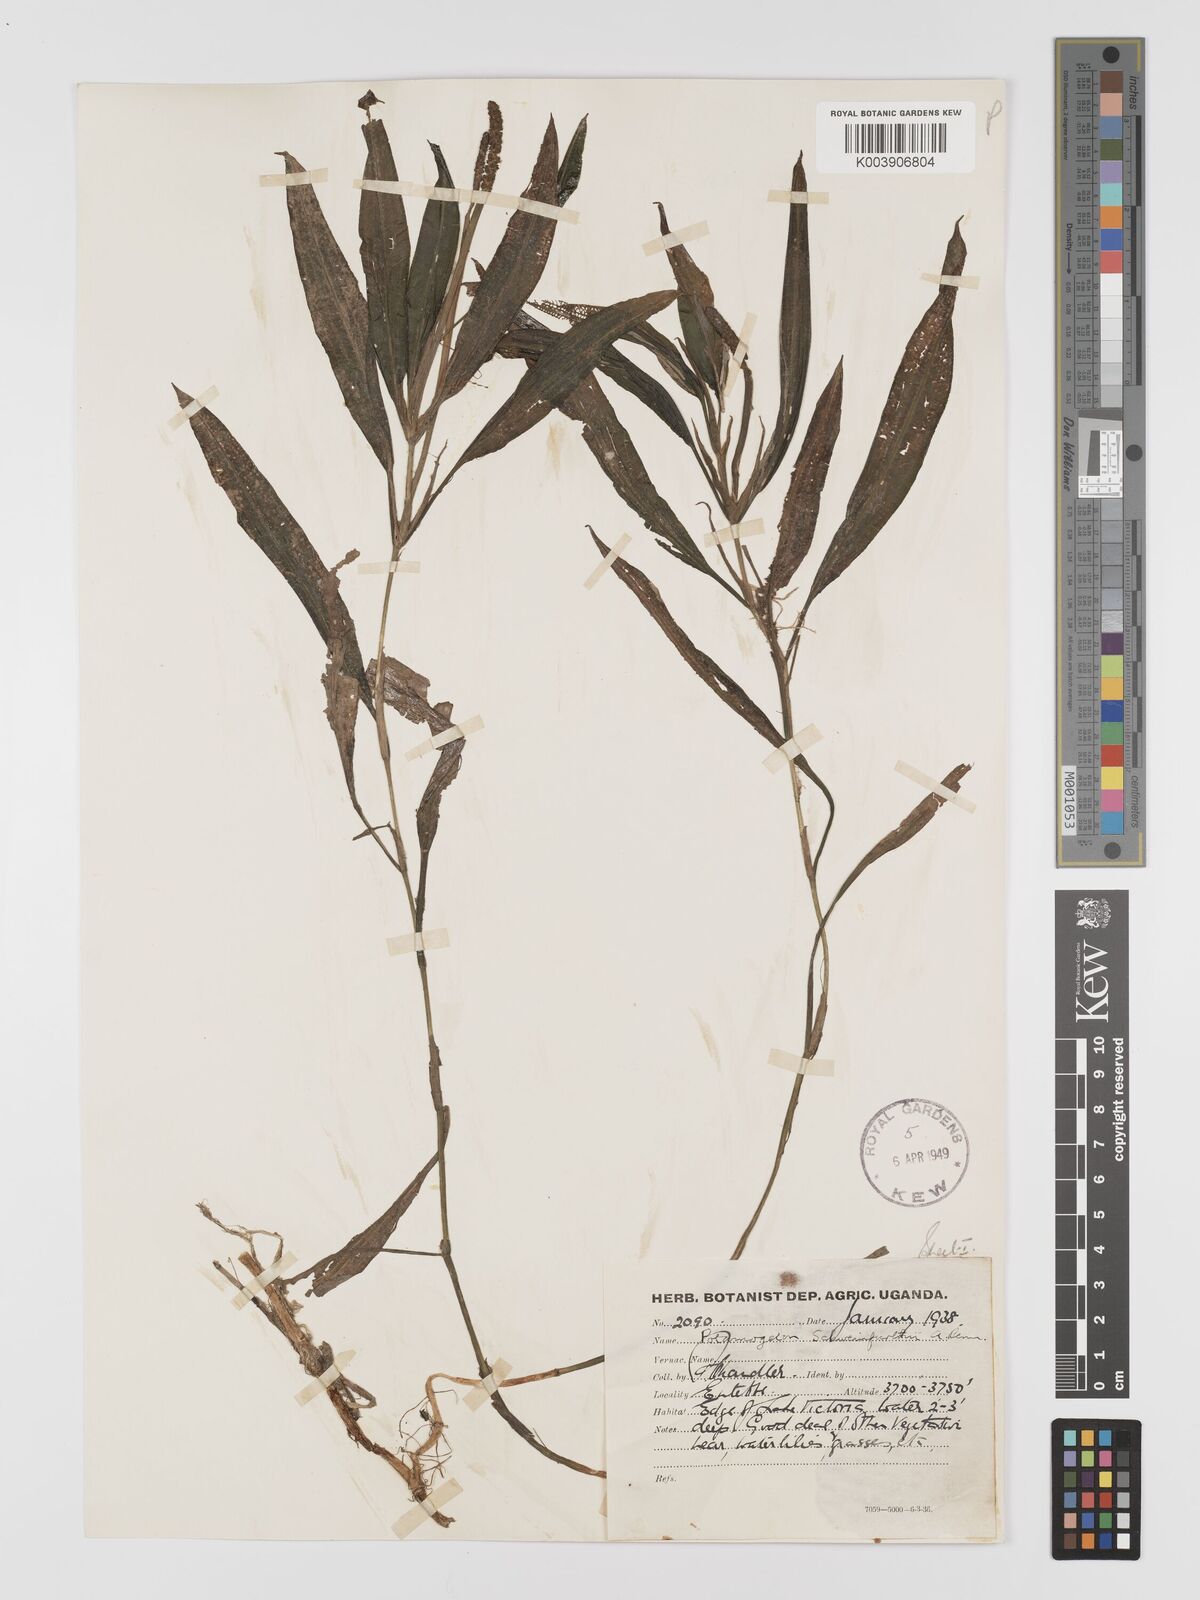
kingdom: Plantae
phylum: Tracheophyta
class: Liliopsida
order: Alismatales
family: Potamogetonaceae
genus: Potamogeton
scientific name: Potamogeton schweinfurthii
